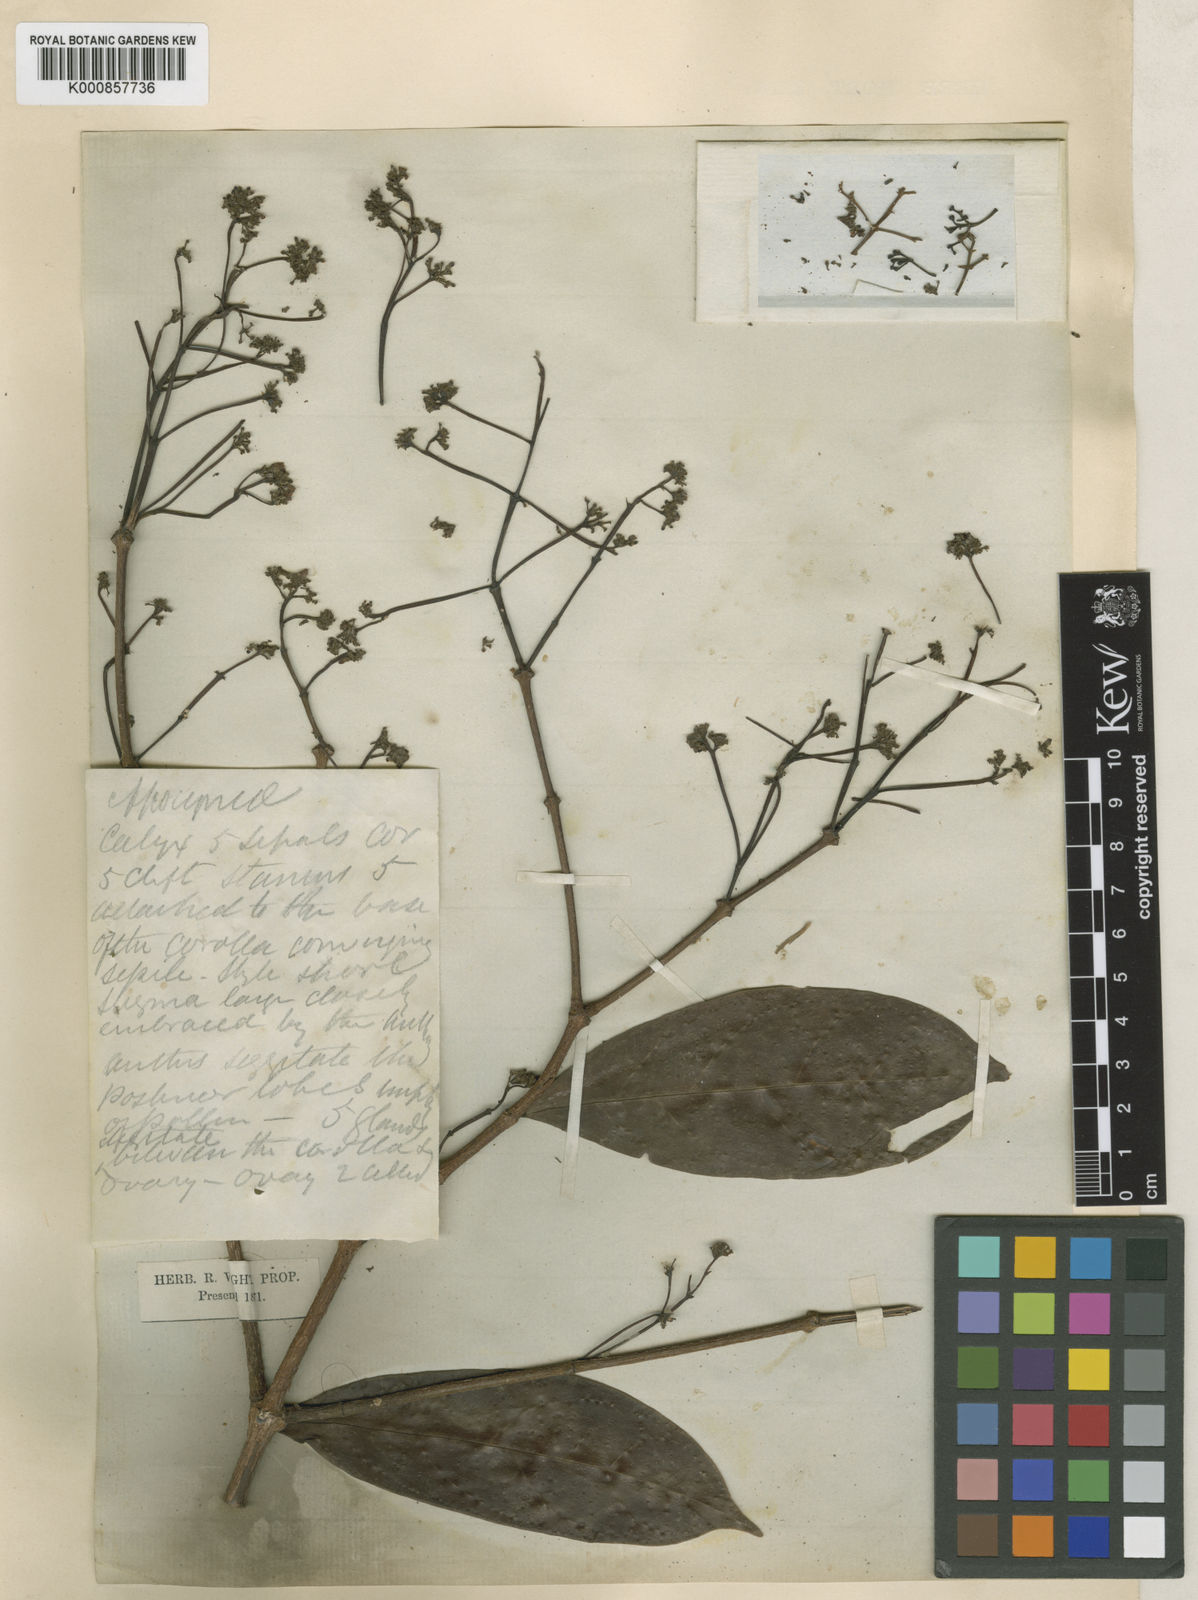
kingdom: Plantae
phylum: Tracheophyta
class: Magnoliopsida
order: Gentianales
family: Apocynaceae
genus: Urceola
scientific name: Urceola laevigata
